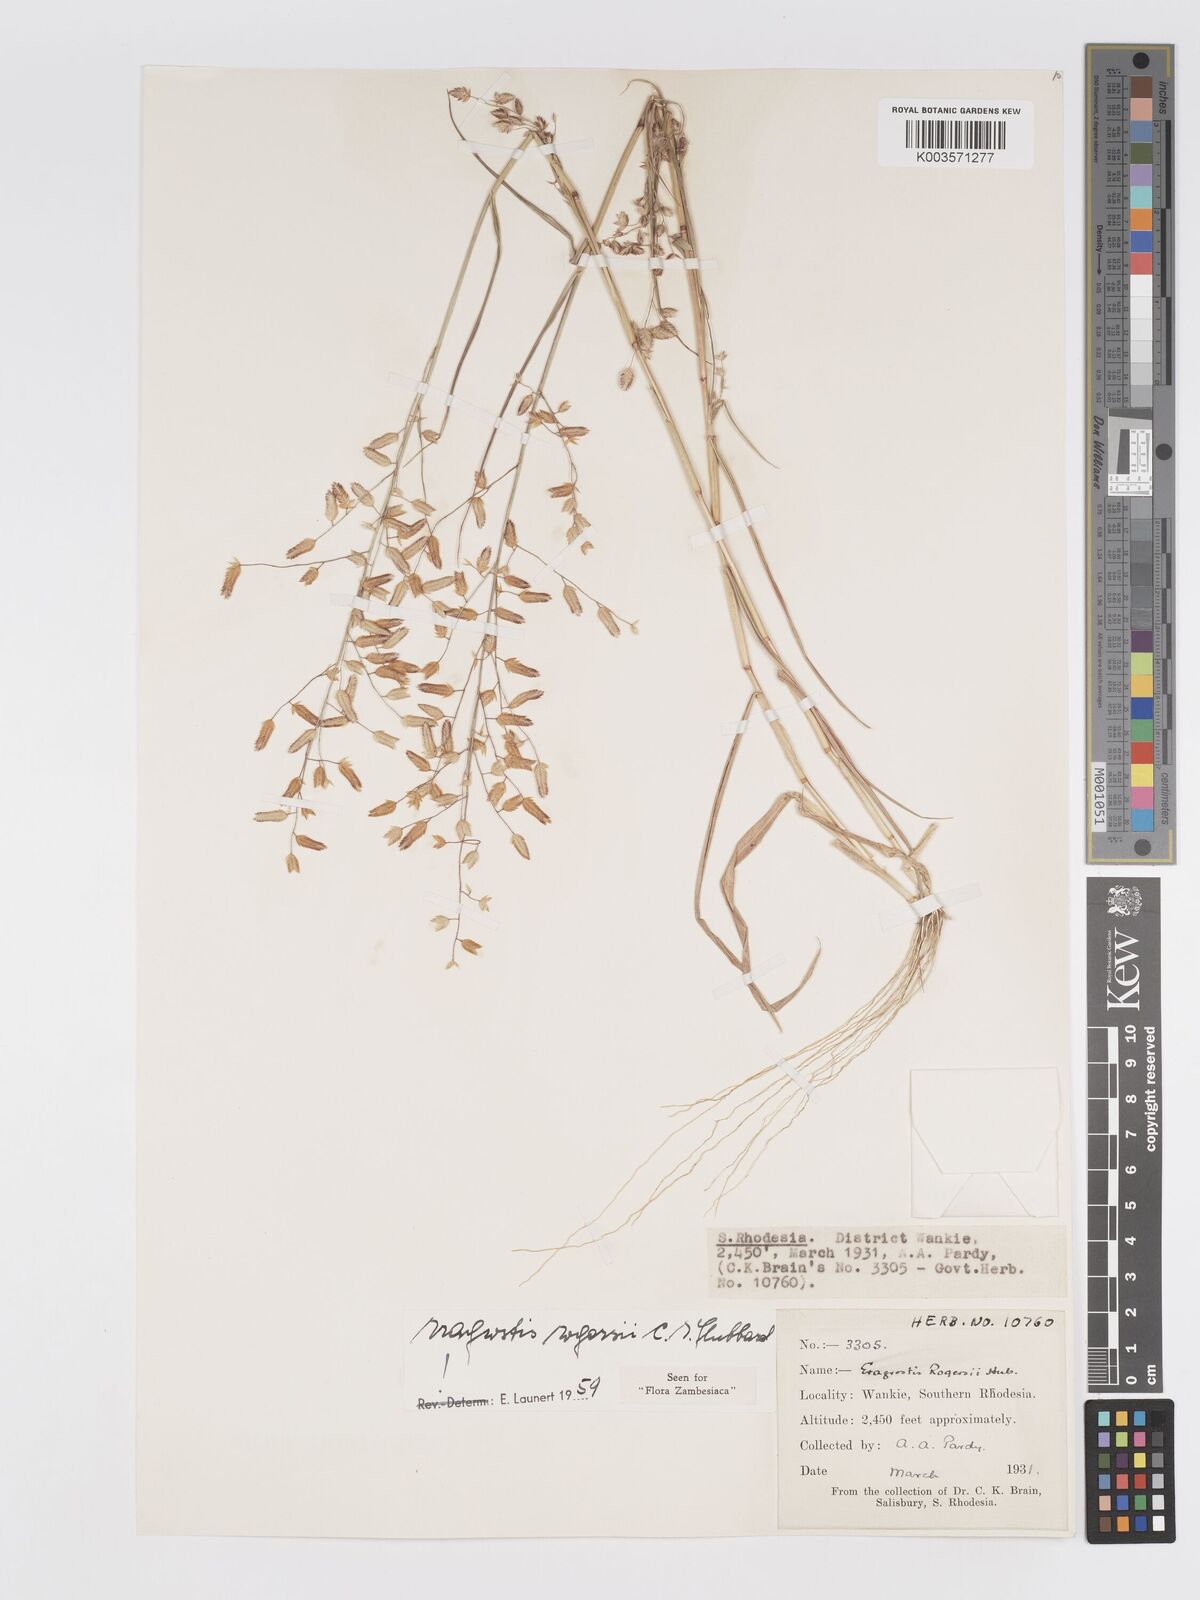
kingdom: Plantae
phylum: Tracheophyta
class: Liliopsida
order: Poales
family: Poaceae
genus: Eragrostis
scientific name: Eragrostis rogersii
